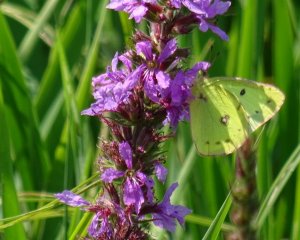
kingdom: Animalia
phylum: Arthropoda
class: Insecta
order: Lepidoptera
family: Pieridae
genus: Colias
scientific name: Colias philodice
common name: Clouded Sulphur
